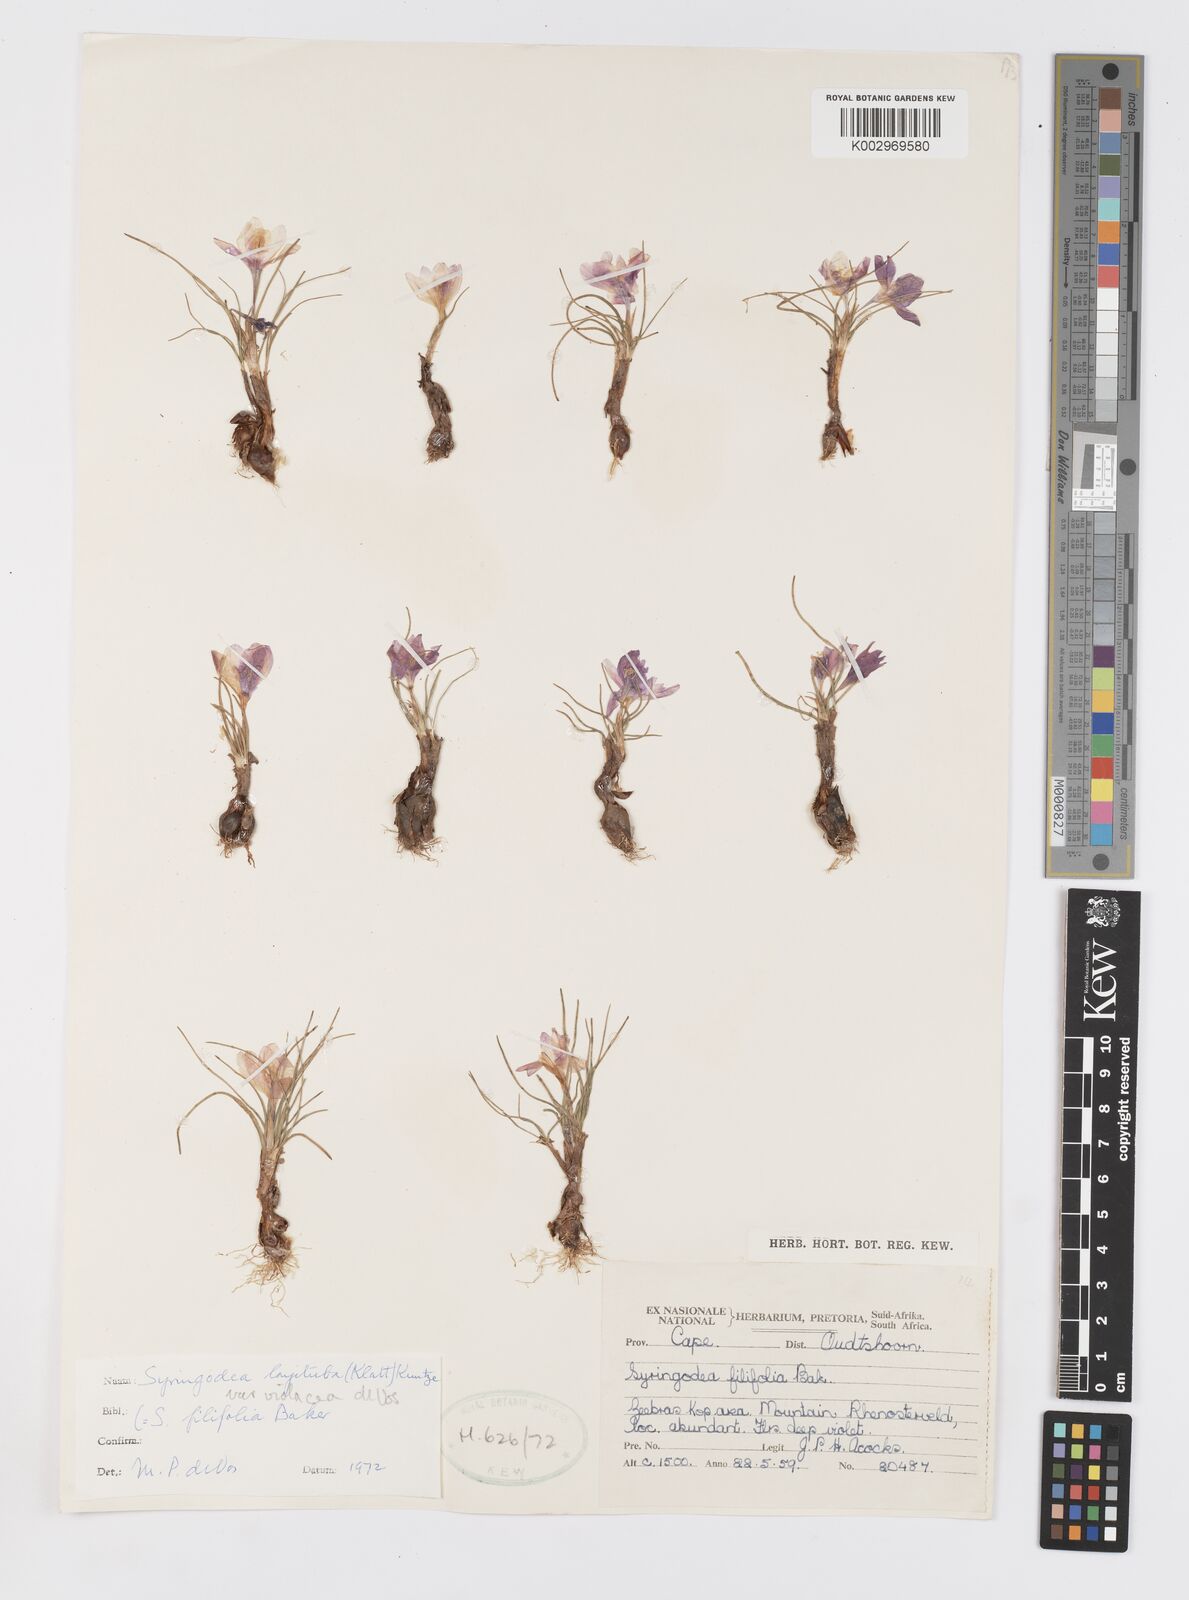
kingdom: Plantae
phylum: Tracheophyta
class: Liliopsida
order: Asparagales
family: Iridaceae
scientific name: Iridaceae
